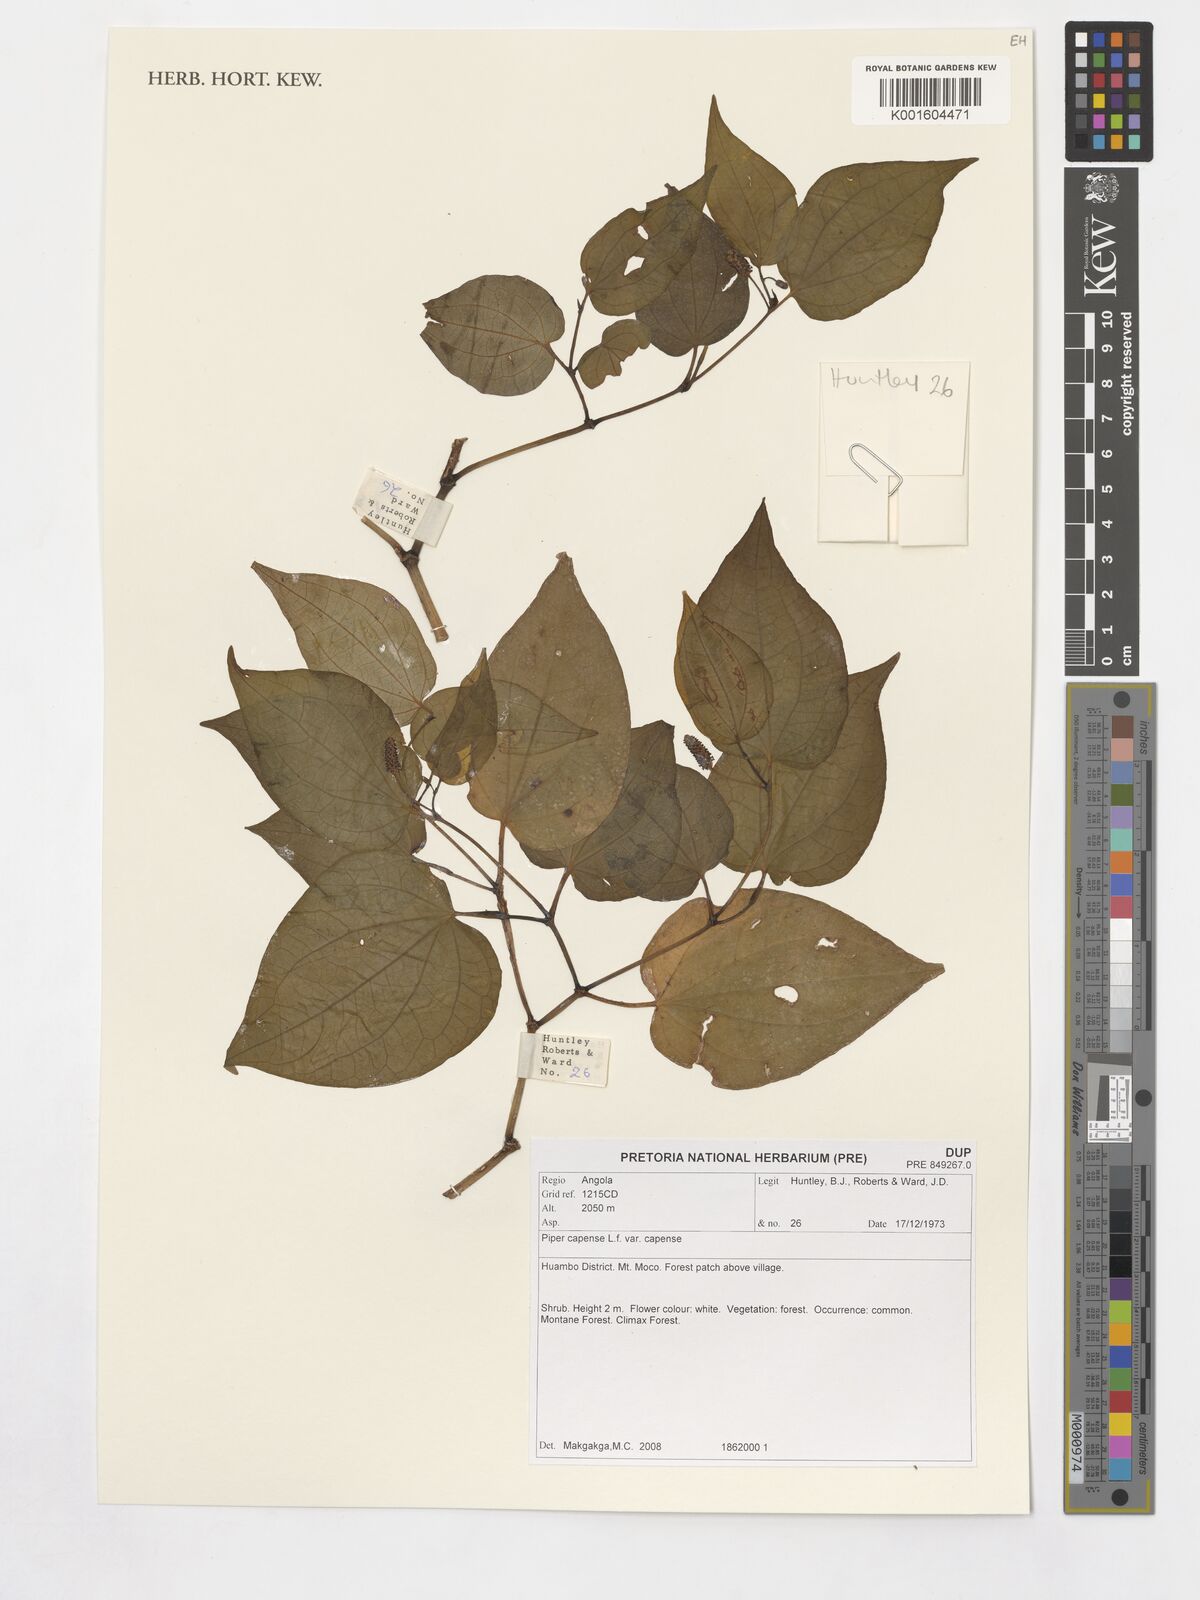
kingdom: Plantae
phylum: Tracheophyta
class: Magnoliopsida
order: Piperales
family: Piperaceae
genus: Piper
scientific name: Piper capense
